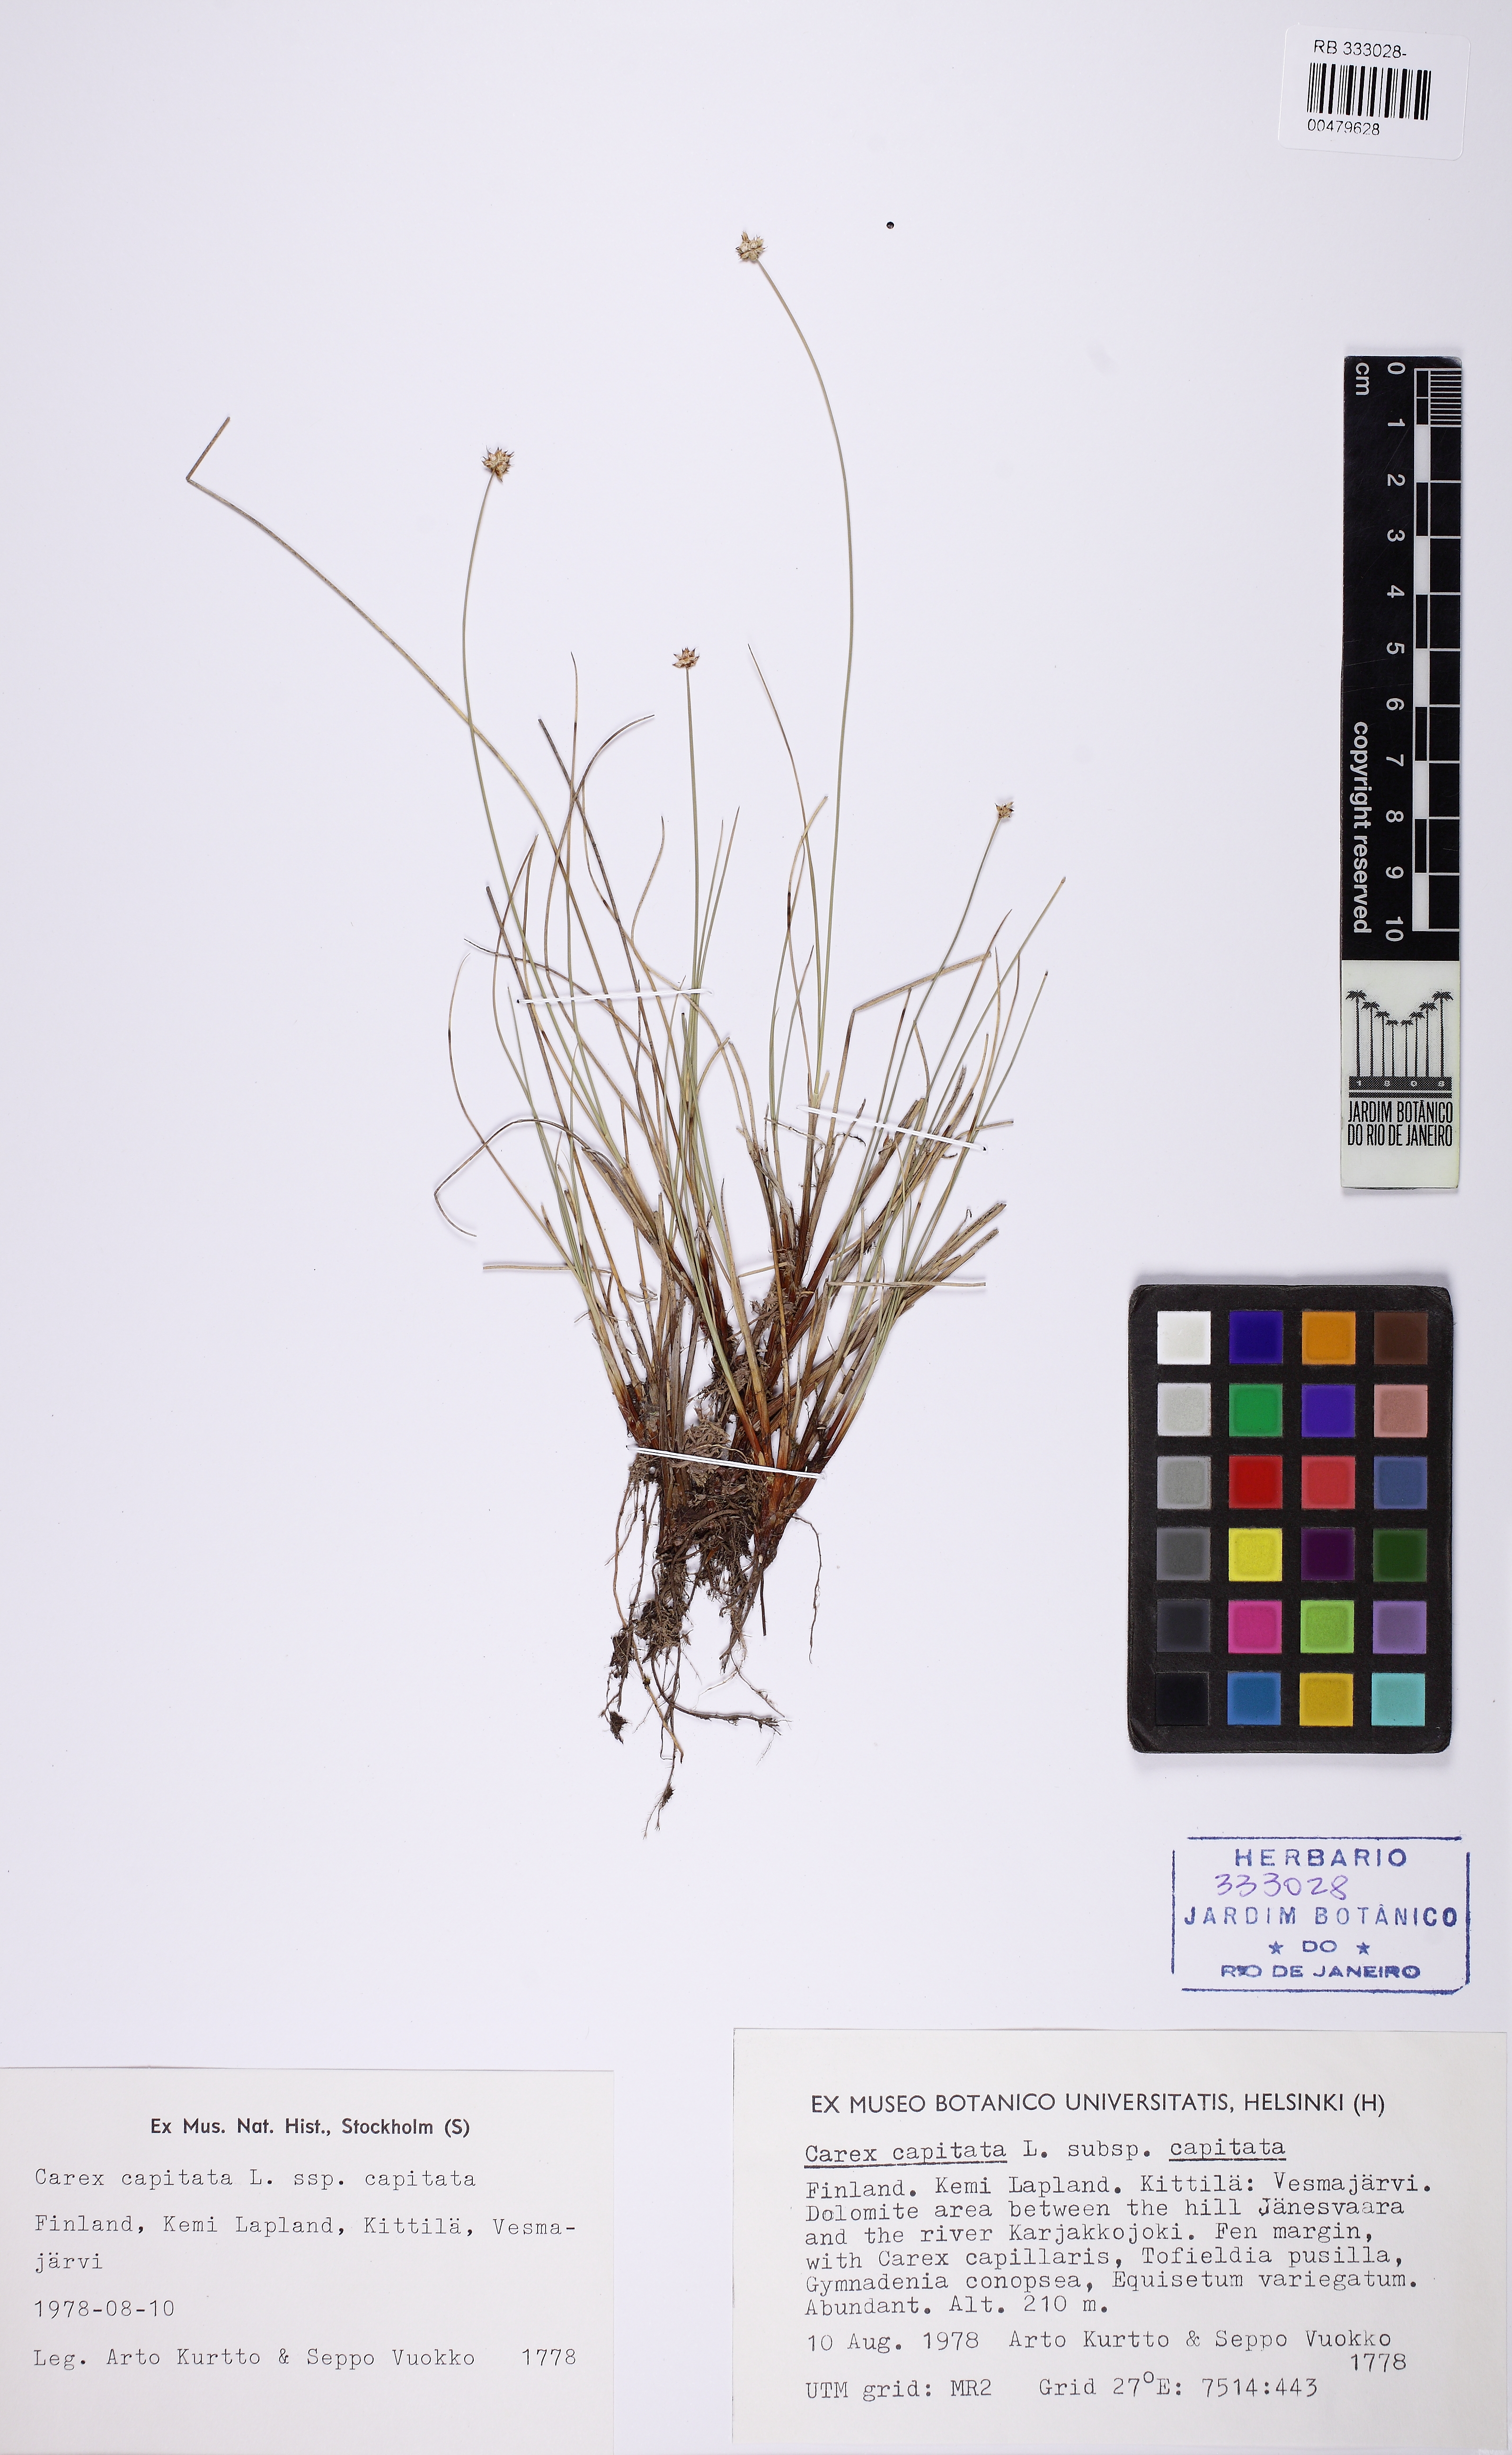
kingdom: Plantae
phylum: Tracheophyta
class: Liliopsida
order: Poales
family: Cyperaceae
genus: Carex
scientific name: Carex capitata
